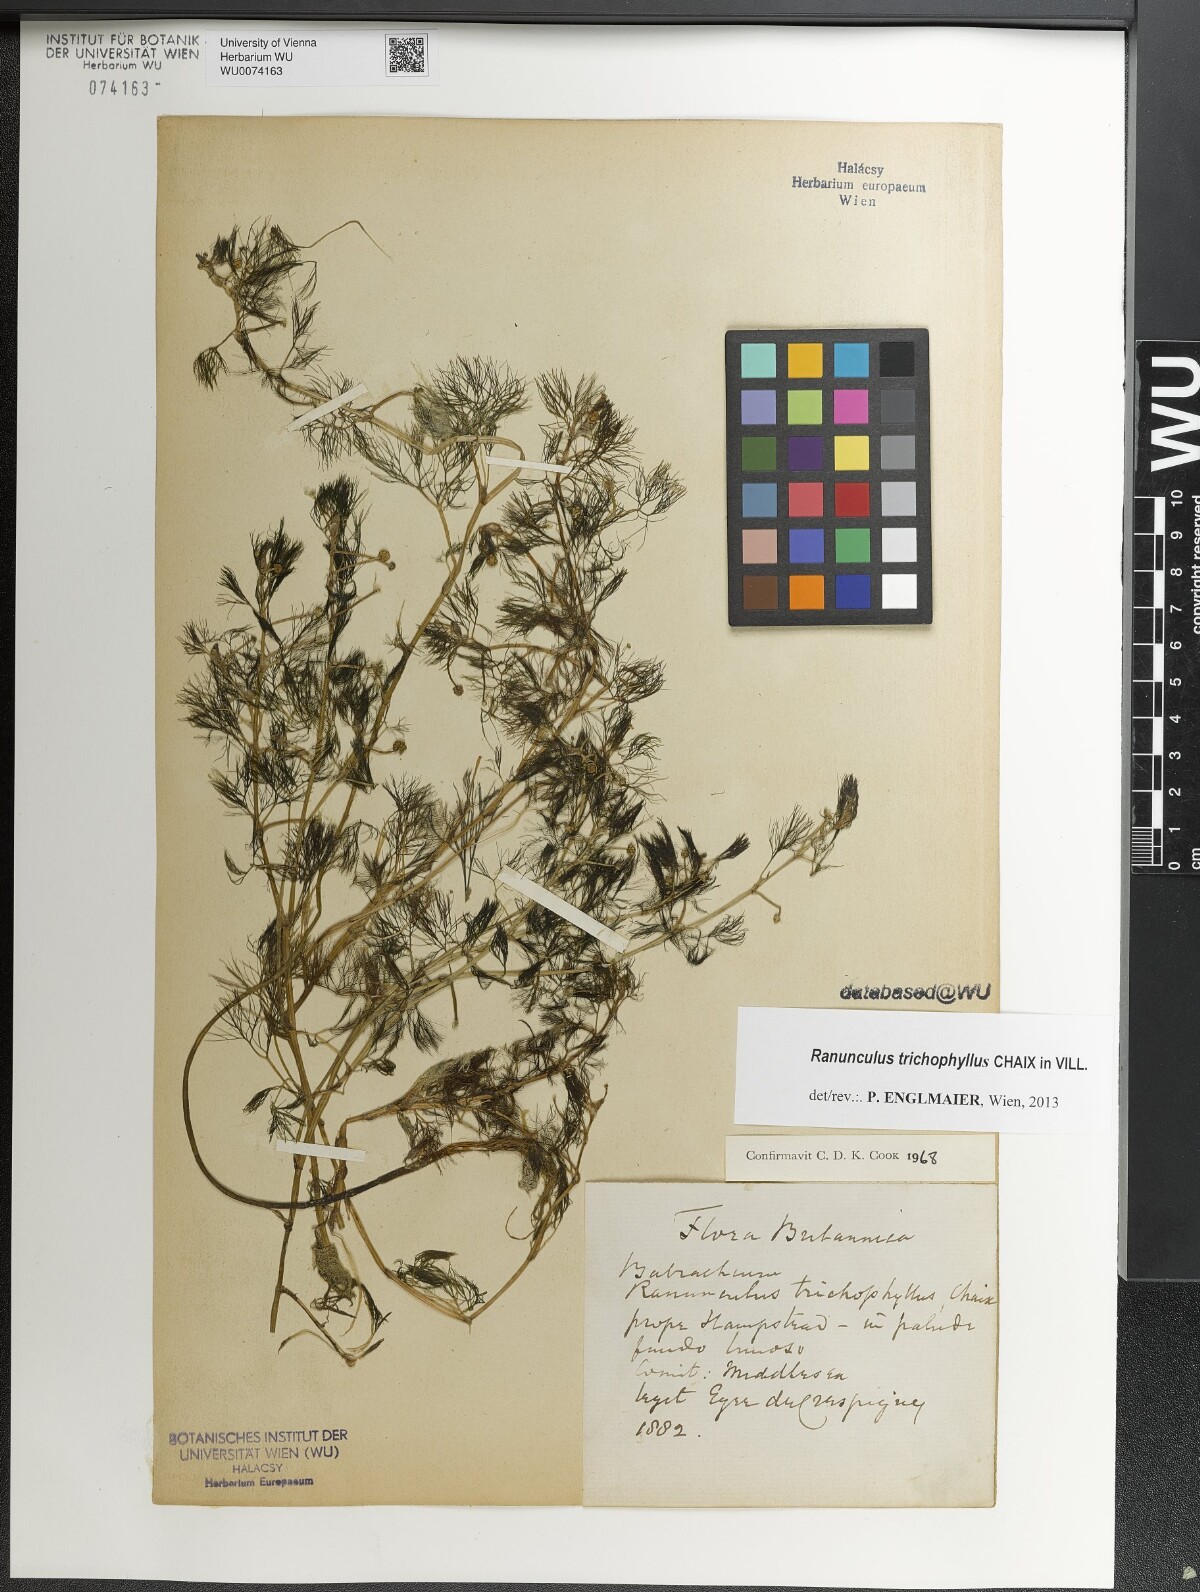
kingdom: Plantae
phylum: Tracheophyta
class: Magnoliopsida
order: Ranunculales
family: Ranunculaceae
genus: Ranunculus
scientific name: Ranunculus trichophyllus
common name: Thread-leaved water-crowfoot
